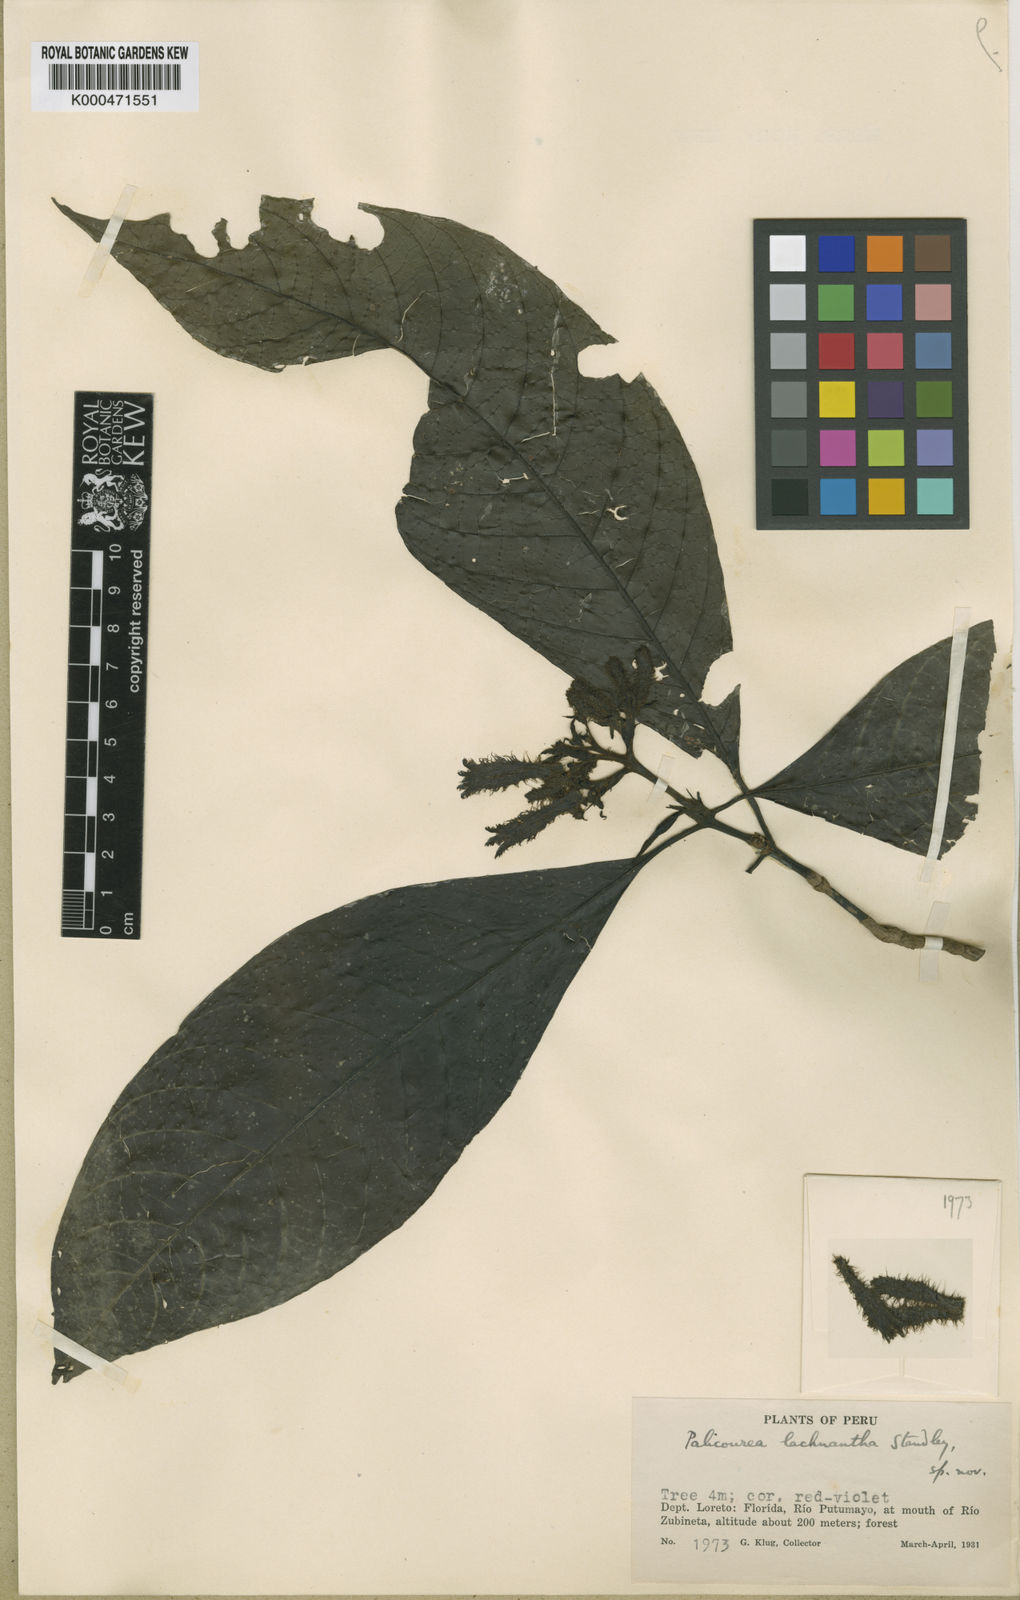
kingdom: Plantae
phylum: Tracheophyta
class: Magnoliopsida
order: Gentianales
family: Rubiaceae
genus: Palicourea
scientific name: Palicourea lachnantha
